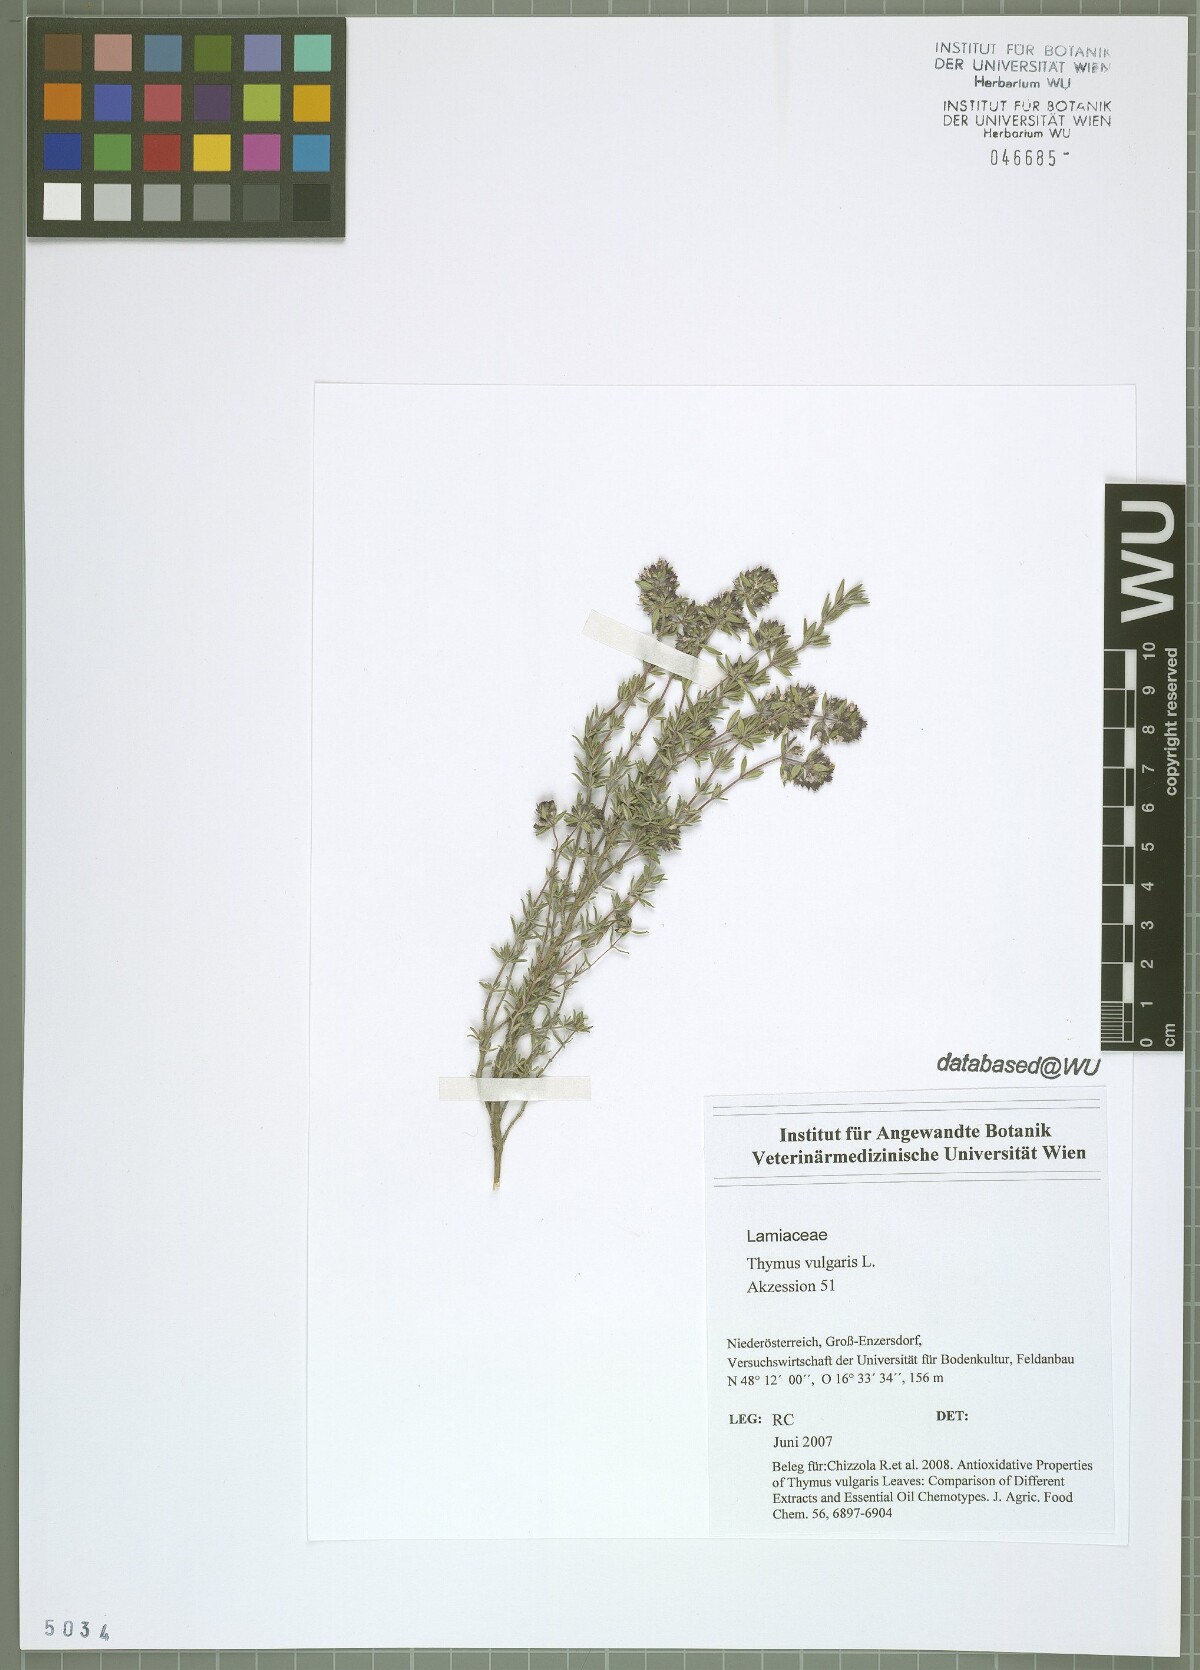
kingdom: Plantae
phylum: Tracheophyta
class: Magnoliopsida
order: Lamiales
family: Lamiaceae
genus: Thymus
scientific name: Thymus vulgaris
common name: Garden thyme
